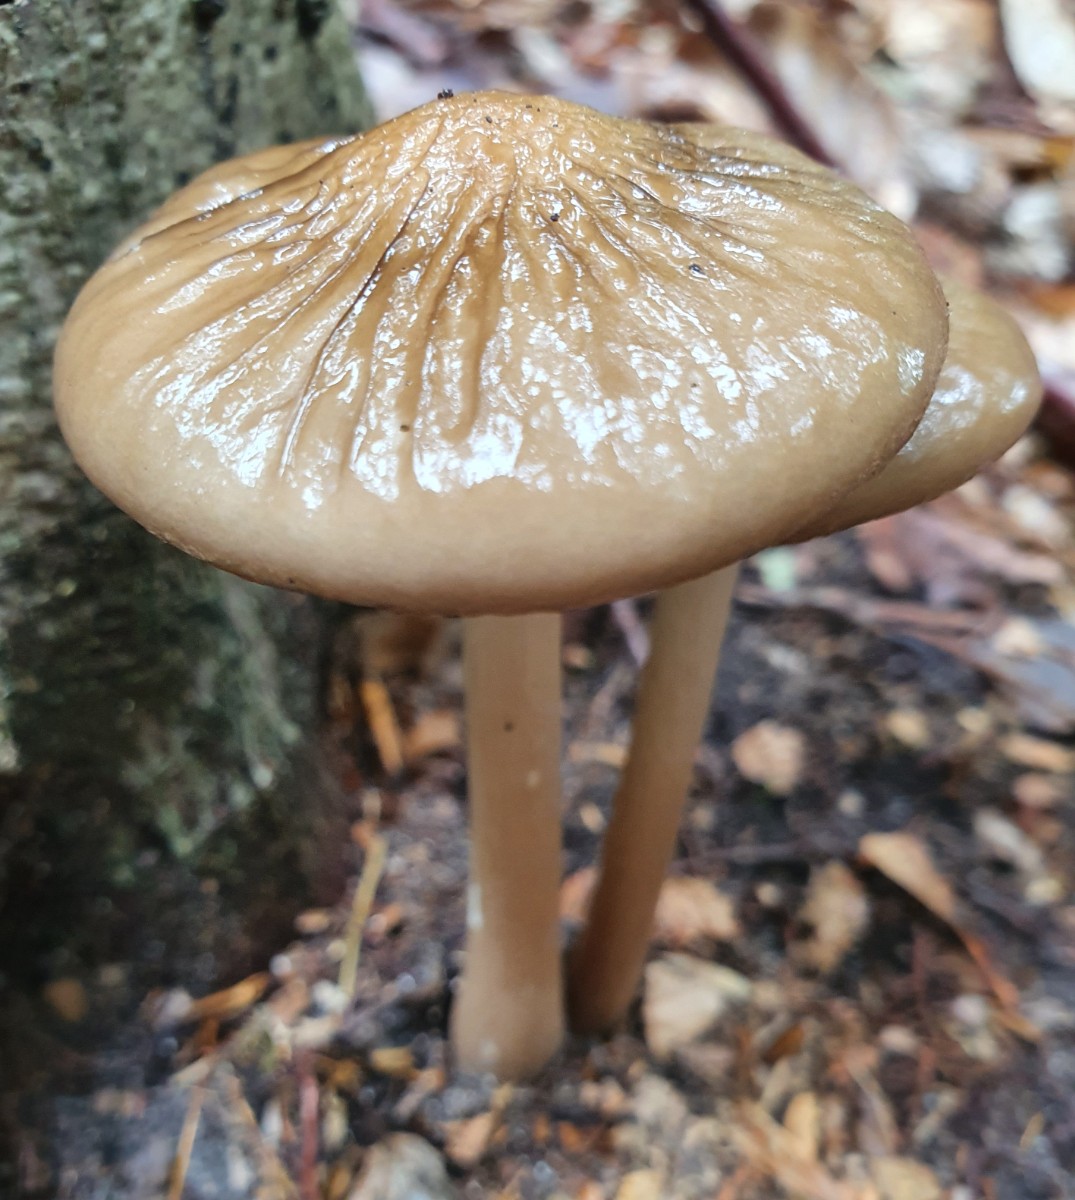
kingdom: Fungi
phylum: Basidiomycota
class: Agaricomycetes
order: Agaricales
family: Physalacriaceae
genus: Hymenopellis
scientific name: Hymenopellis radicata
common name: almindelig pælerodshat
